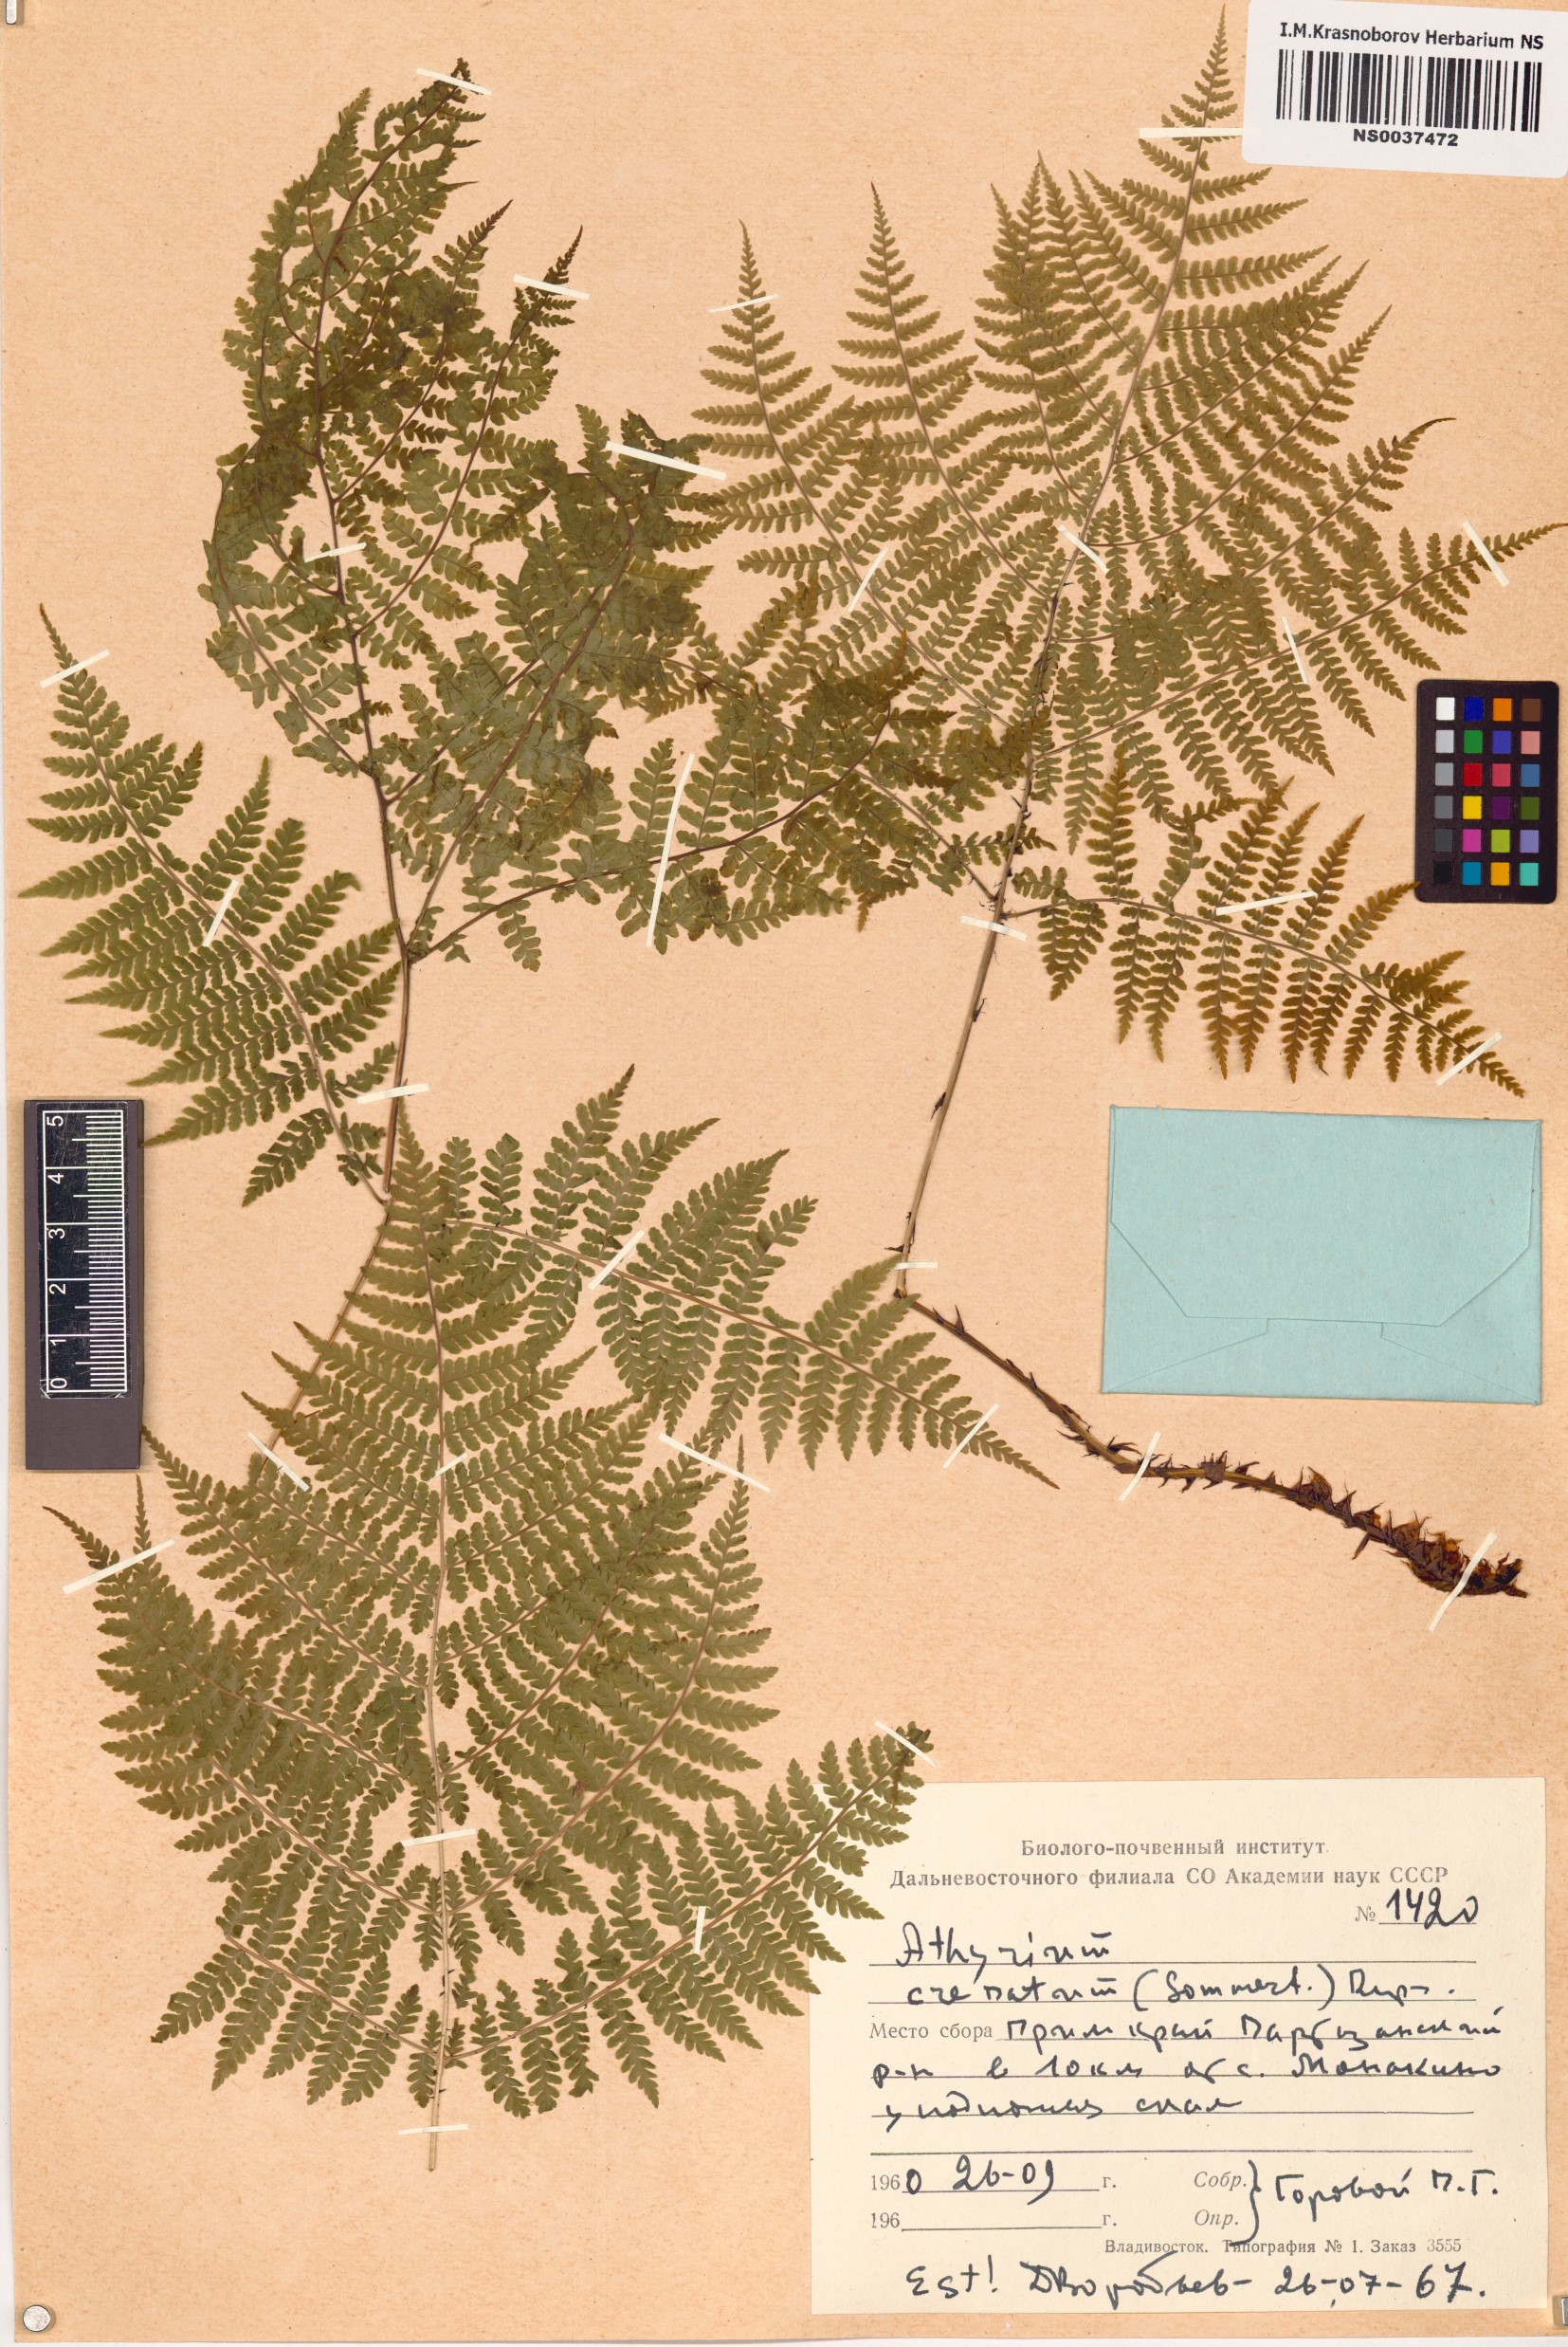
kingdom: Plantae
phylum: Tracheophyta
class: Polypodiopsida
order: Polypodiales
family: Athyriaceae
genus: Diplazium
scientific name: Diplazium sibiricum
